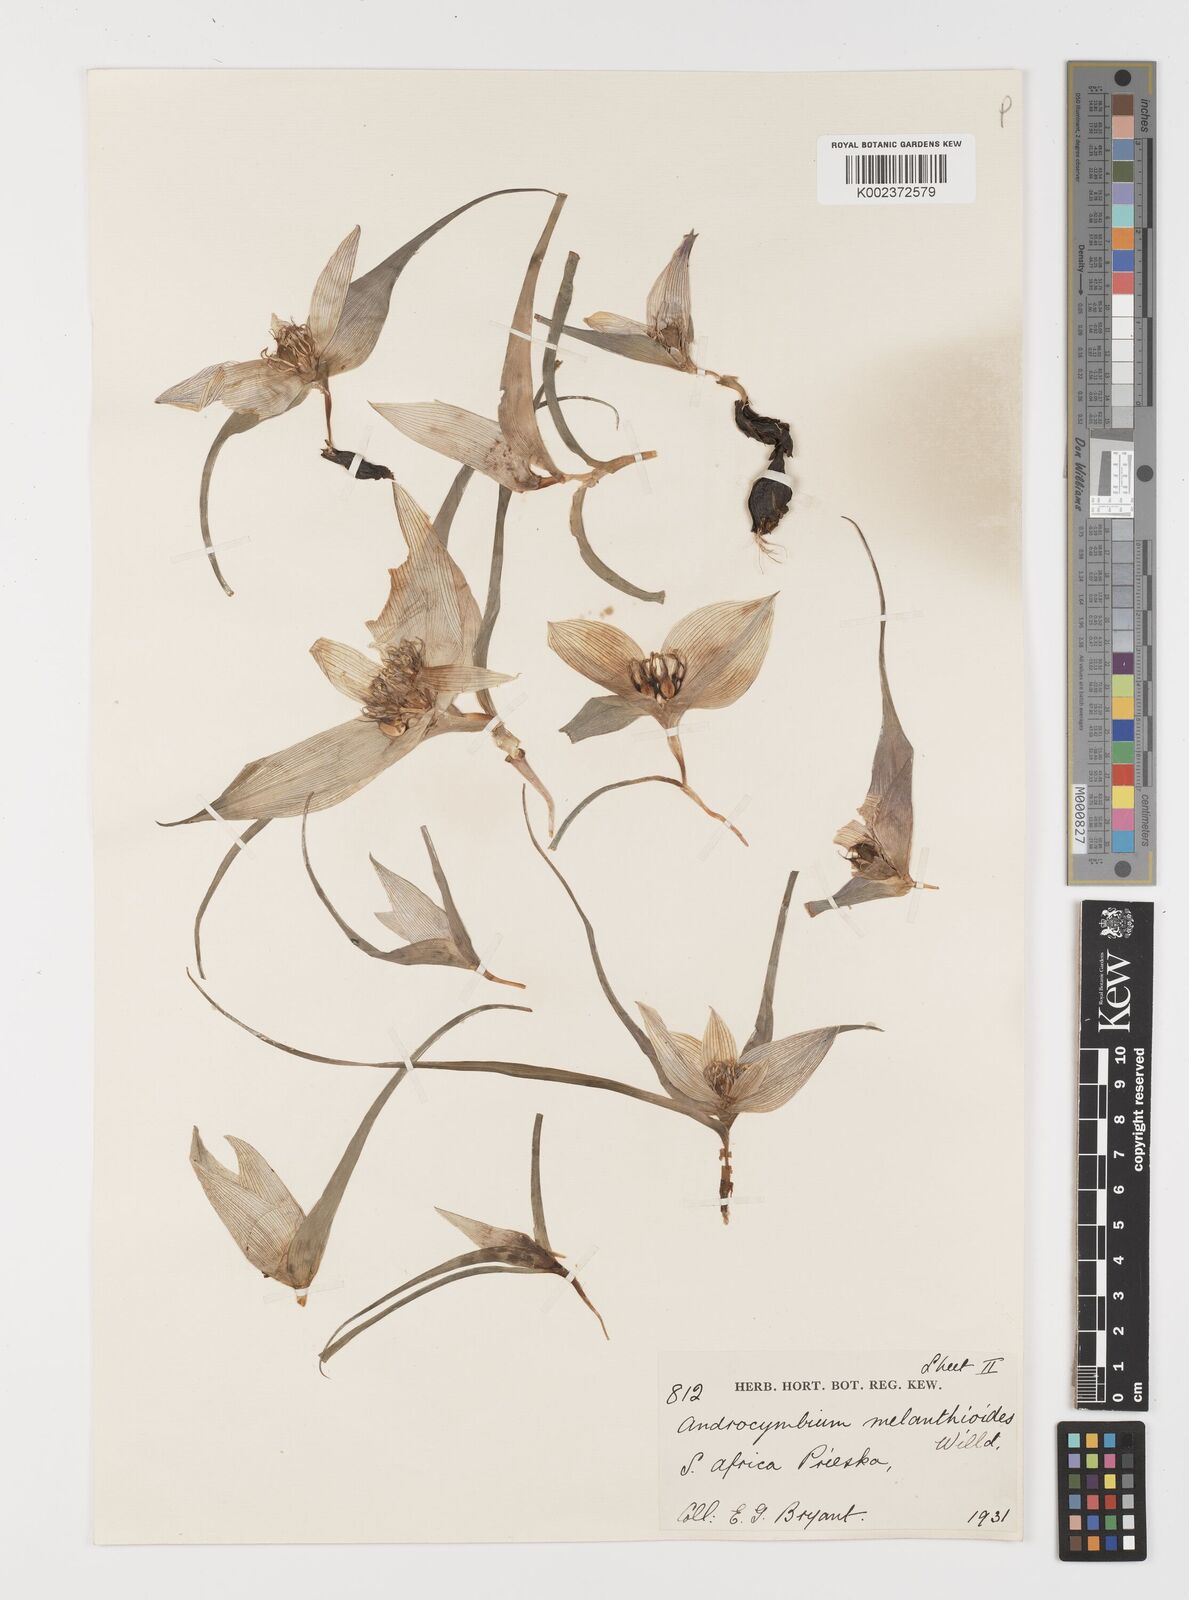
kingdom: Plantae
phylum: Tracheophyta
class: Liliopsida
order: Liliales
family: Colchicaceae
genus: Colchicum
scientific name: Colchicum melanthioides
